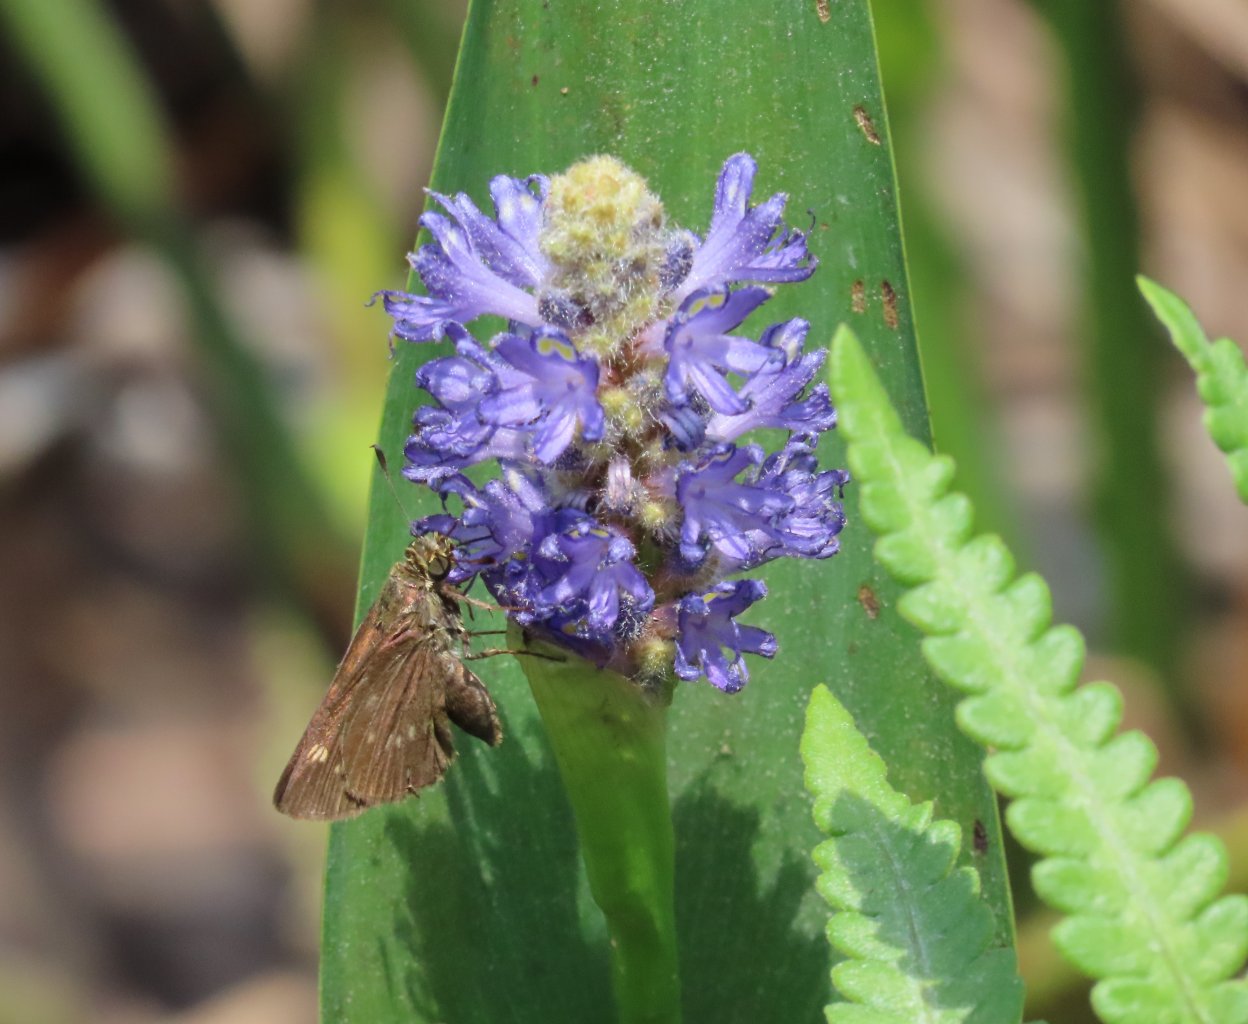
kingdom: Animalia
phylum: Arthropoda
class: Insecta
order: Lepidoptera
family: Hesperiidae
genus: Polites
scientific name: Polites egeremet
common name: Northern Broken-Dash
